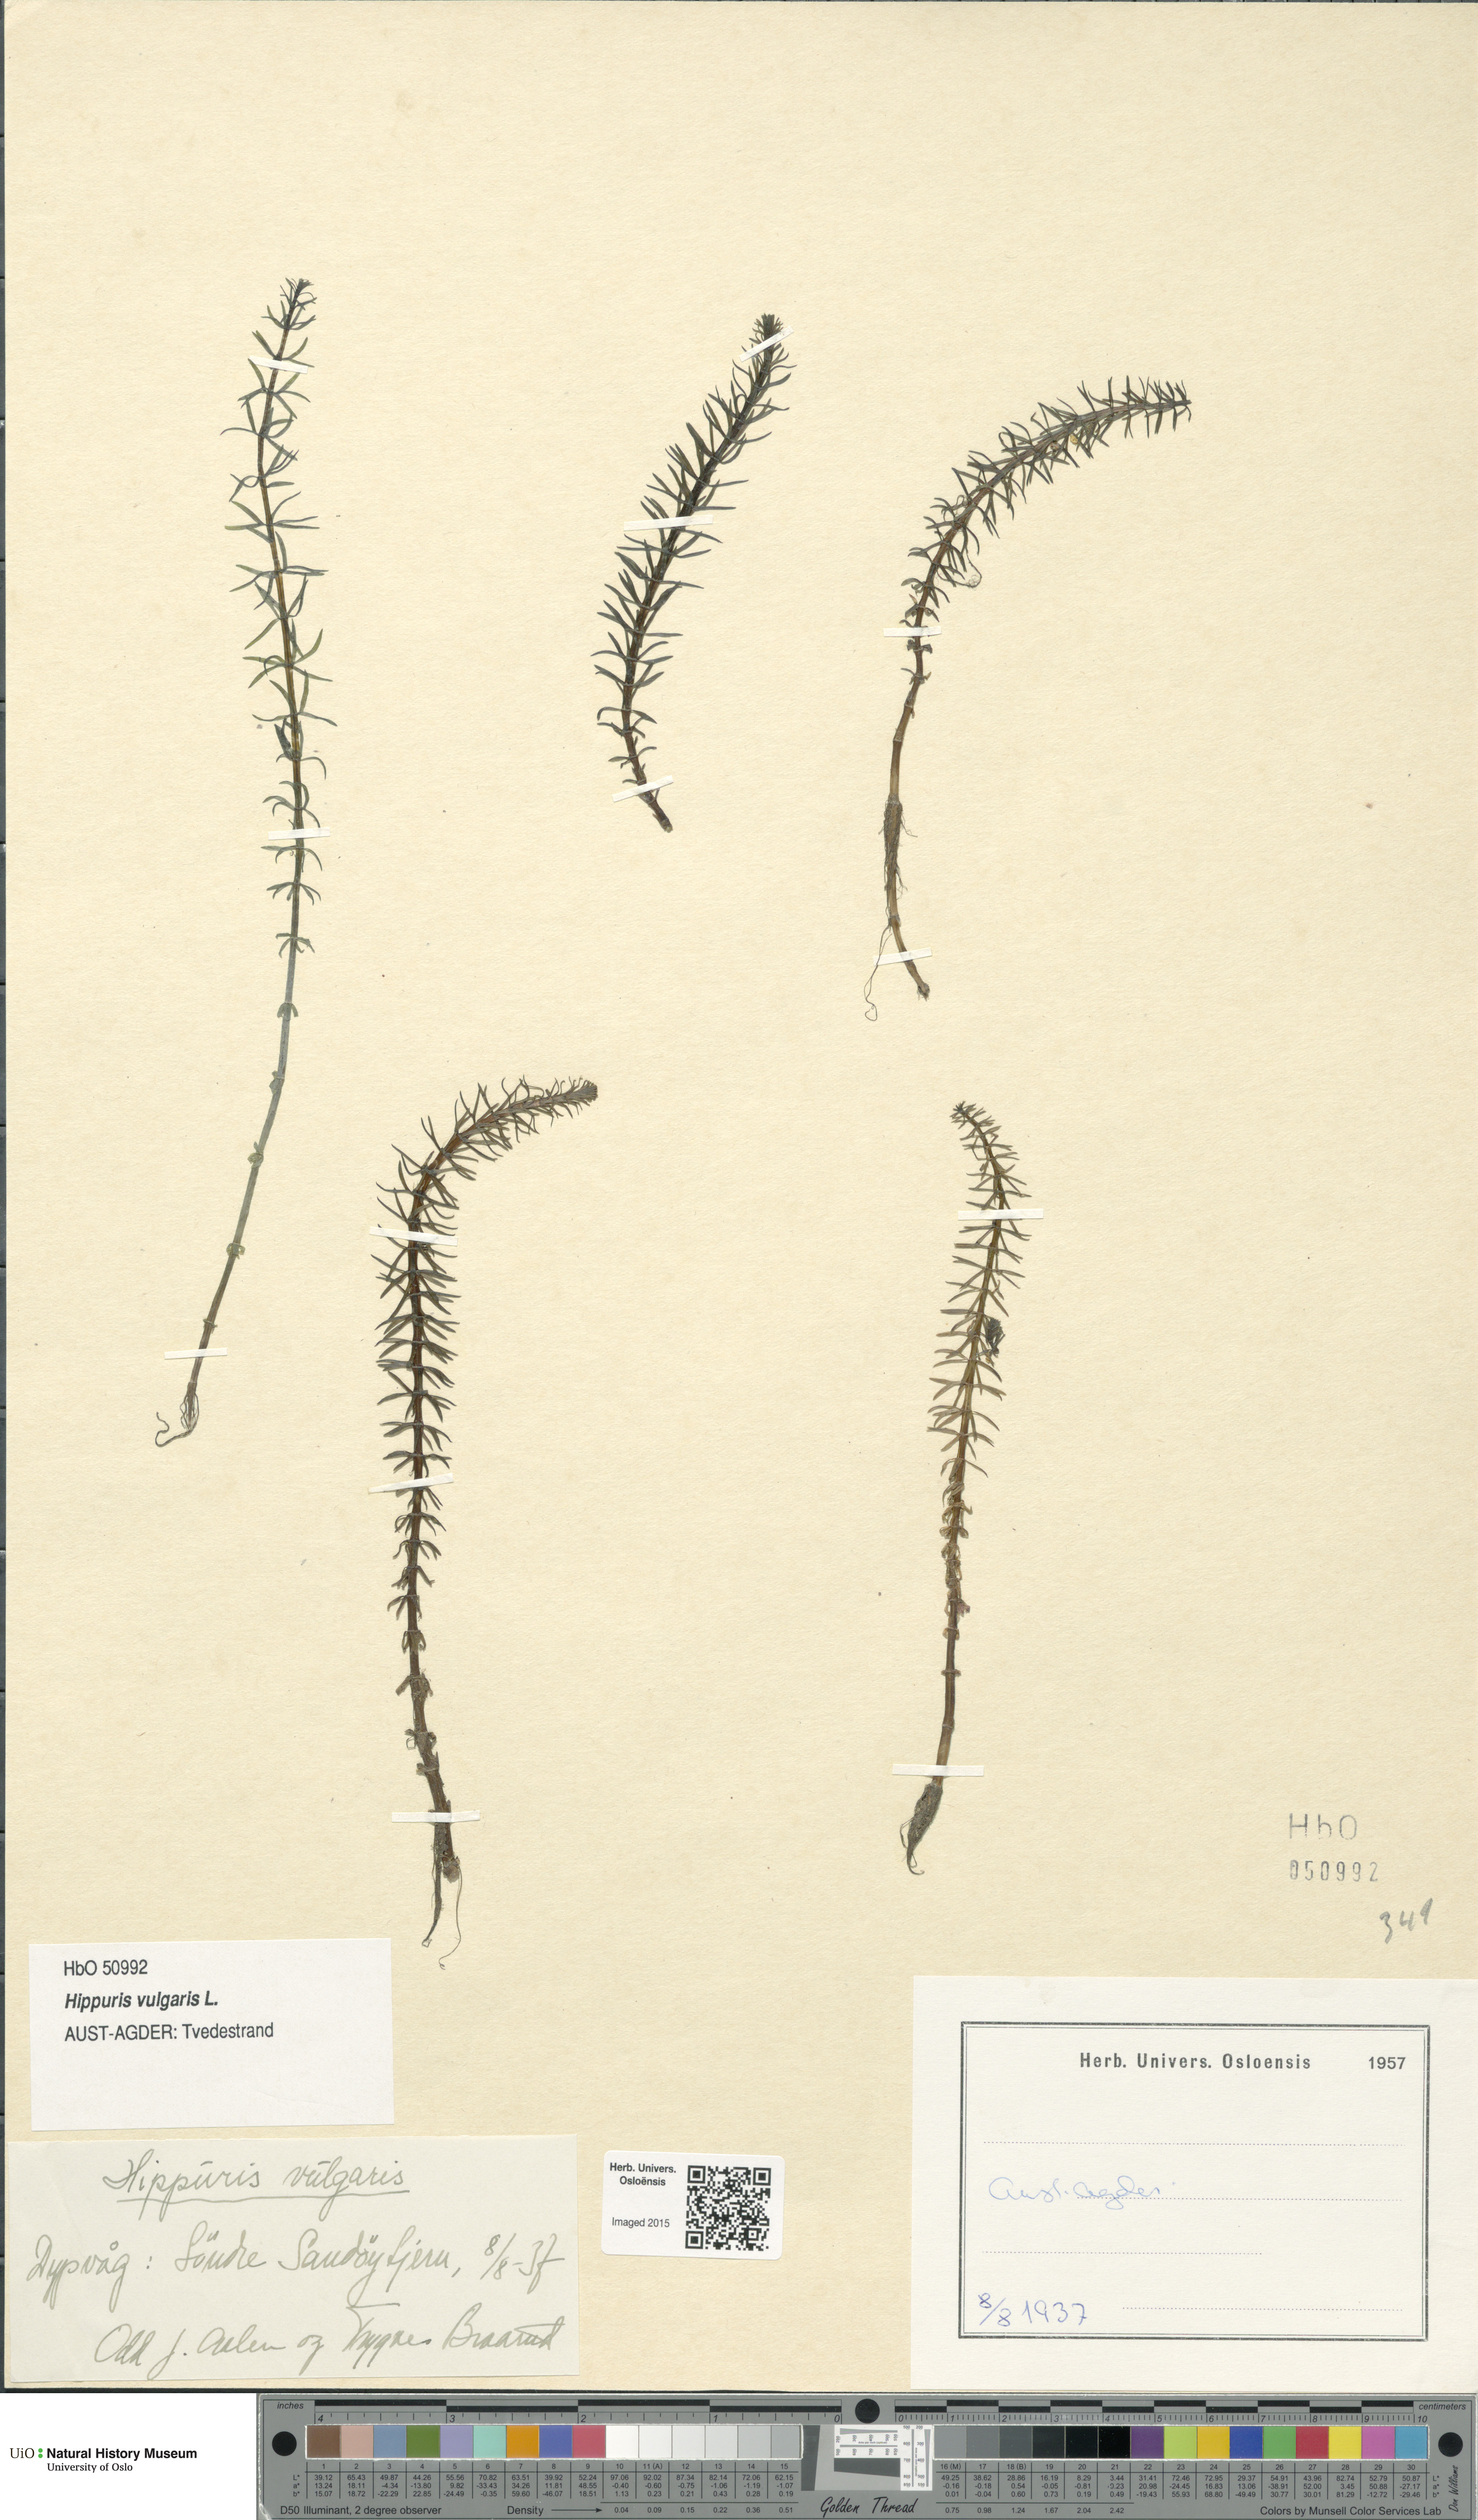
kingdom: Plantae
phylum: Tracheophyta
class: Magnoliopsida
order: Lamiales
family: Plantaginaceae
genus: Hippuris
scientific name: Hippuris vulgaris
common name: Mare's-tail
